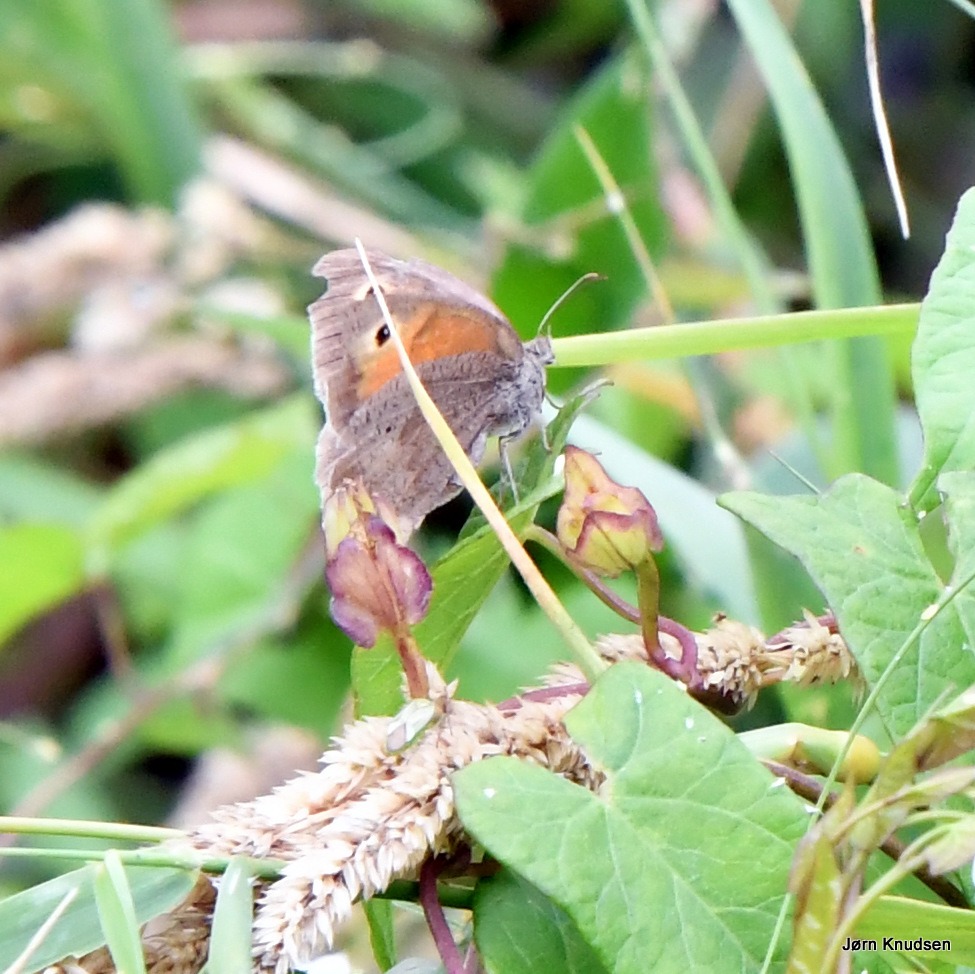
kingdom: Animalia
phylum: Arthropoda
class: Insecta
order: Lepidoptera
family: Nymphalidae
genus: Coenonympha
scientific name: Coenonympha pamphilus
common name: Okkergul randøje
